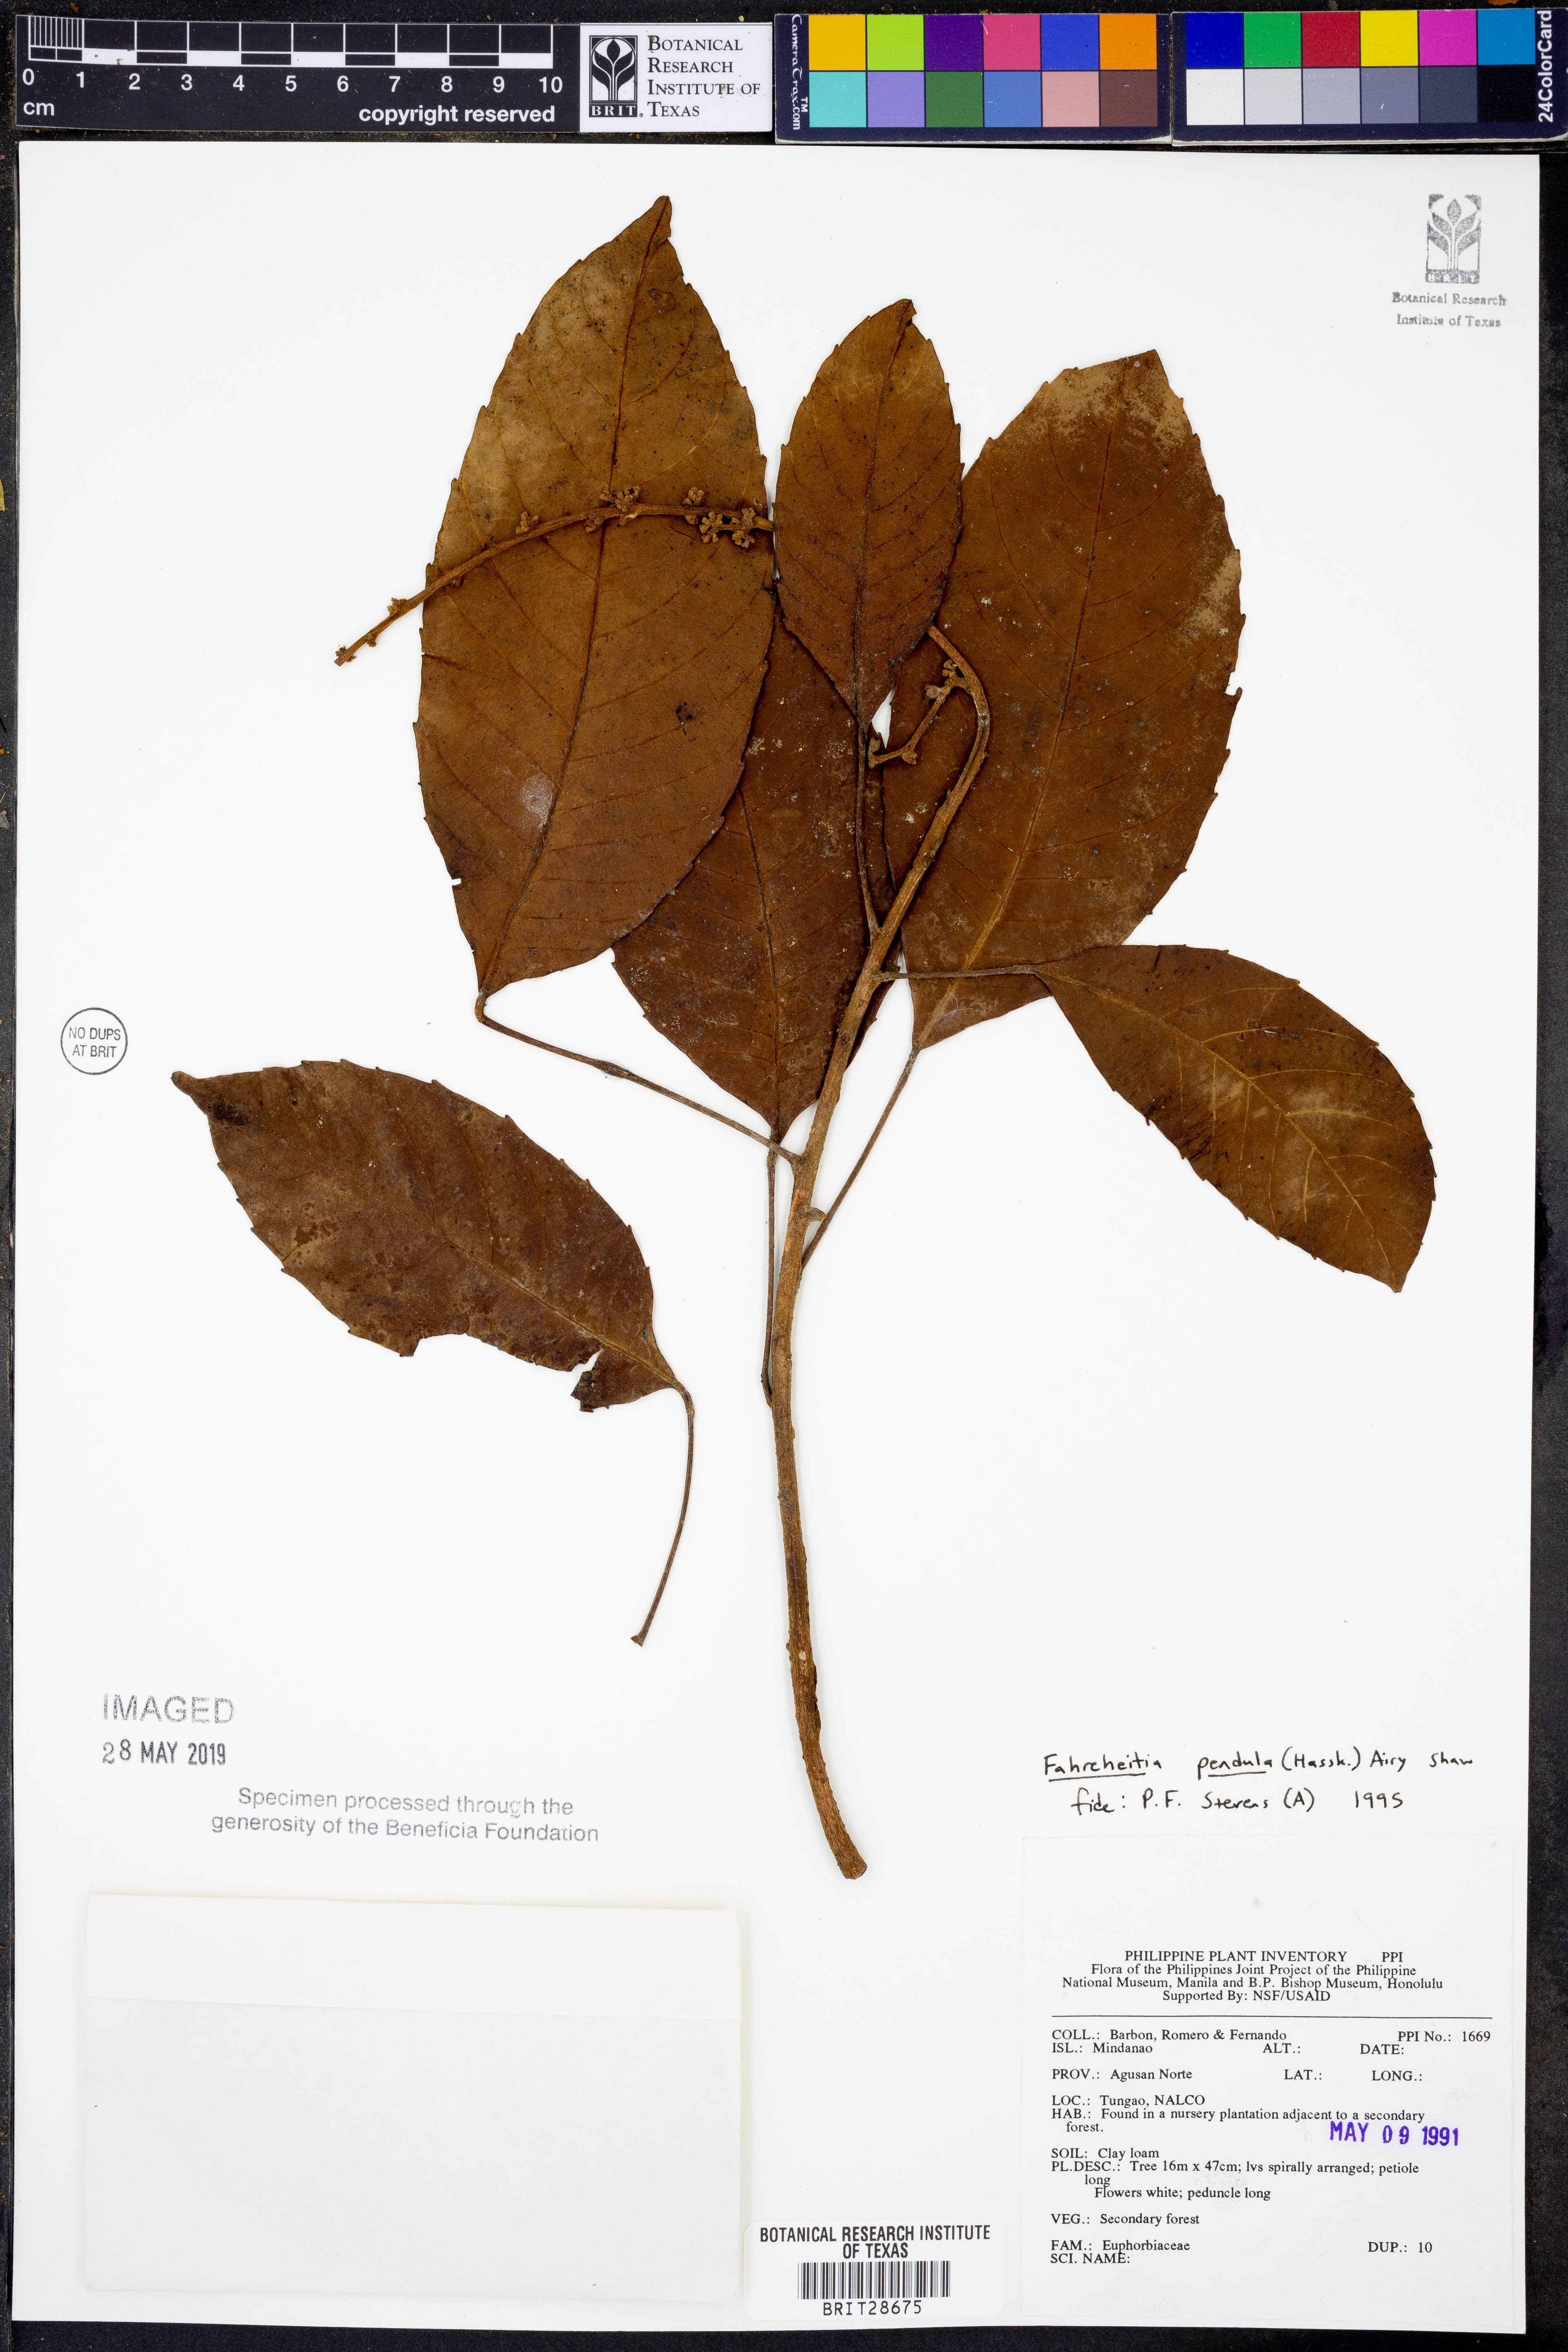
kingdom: Plantae
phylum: Tracheophyta
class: Magnoliopsida
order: Malpighiales
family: Euphorbiaceae
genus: Paracroton
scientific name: Paracroton pendulus
